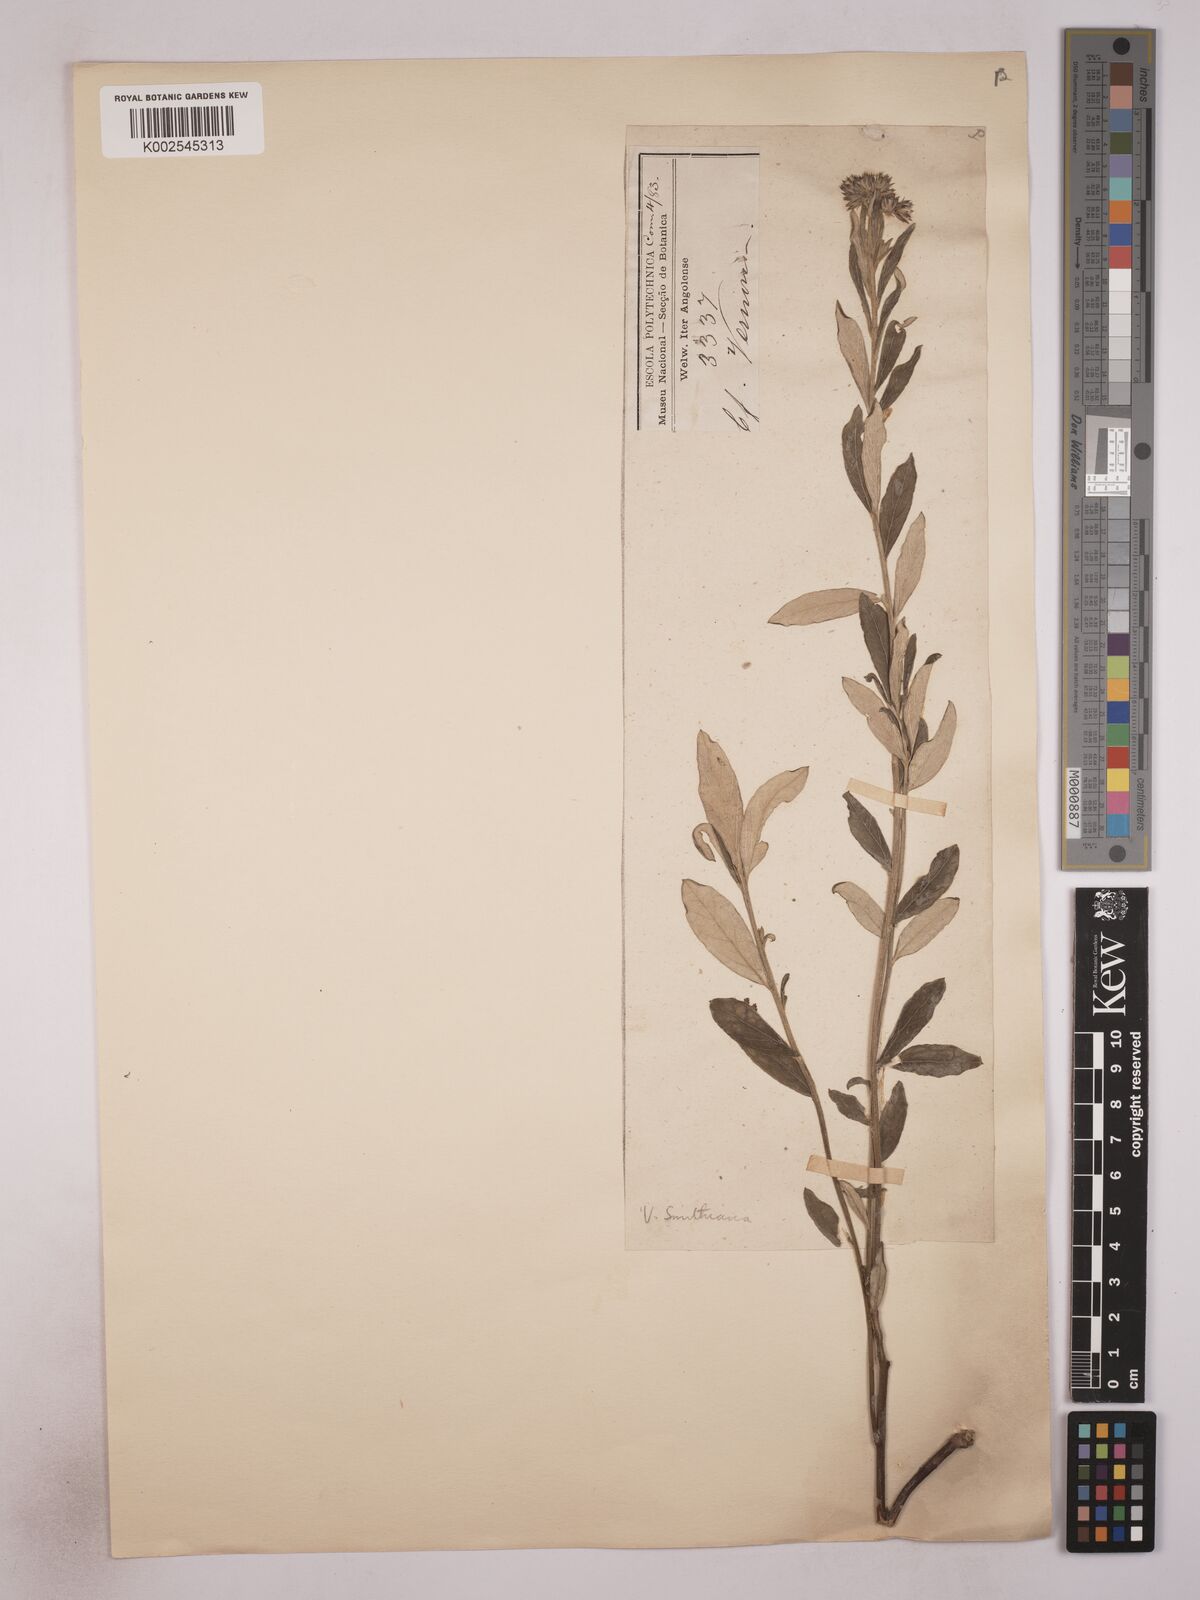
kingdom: Plantae
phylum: Tracheophyta
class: Magnoliopsida
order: Asterales
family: Asteraceae
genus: Vernonia
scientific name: Vernonia alticola
